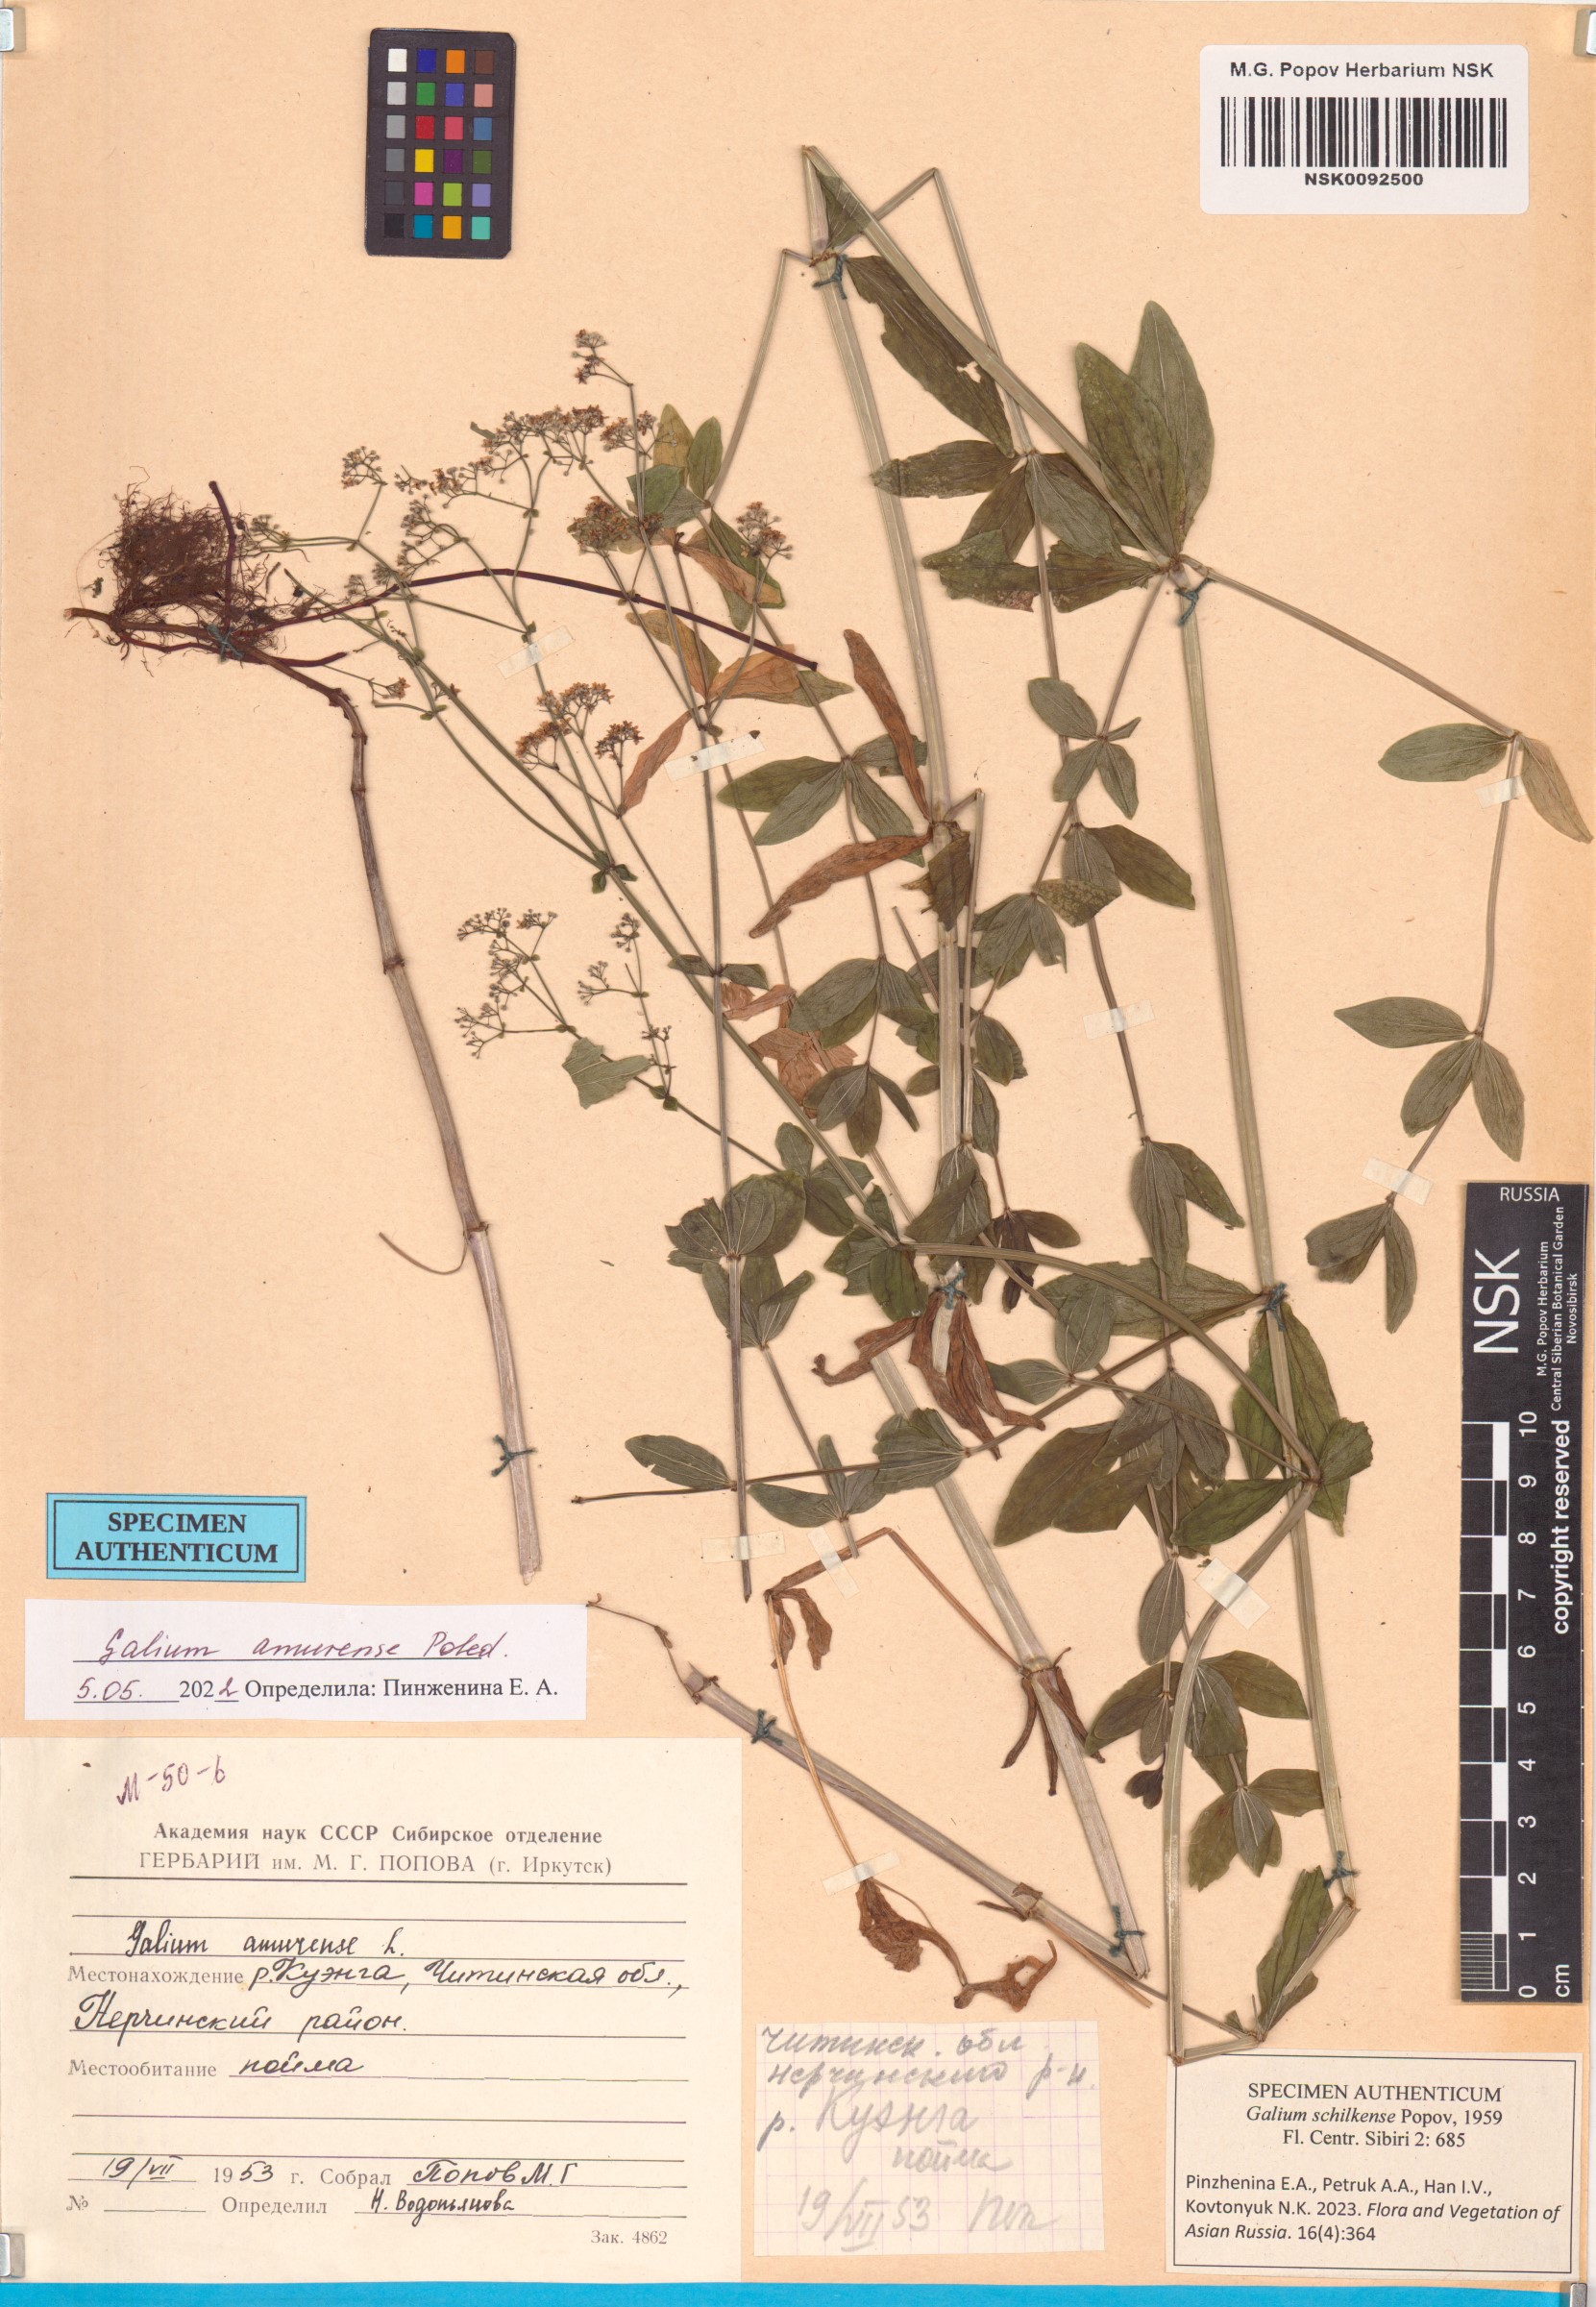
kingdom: Plantae
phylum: Tracheophyta
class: Magnoliopsida
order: Gentianales
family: Rubiaceae
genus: Galium
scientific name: Galium amurense
